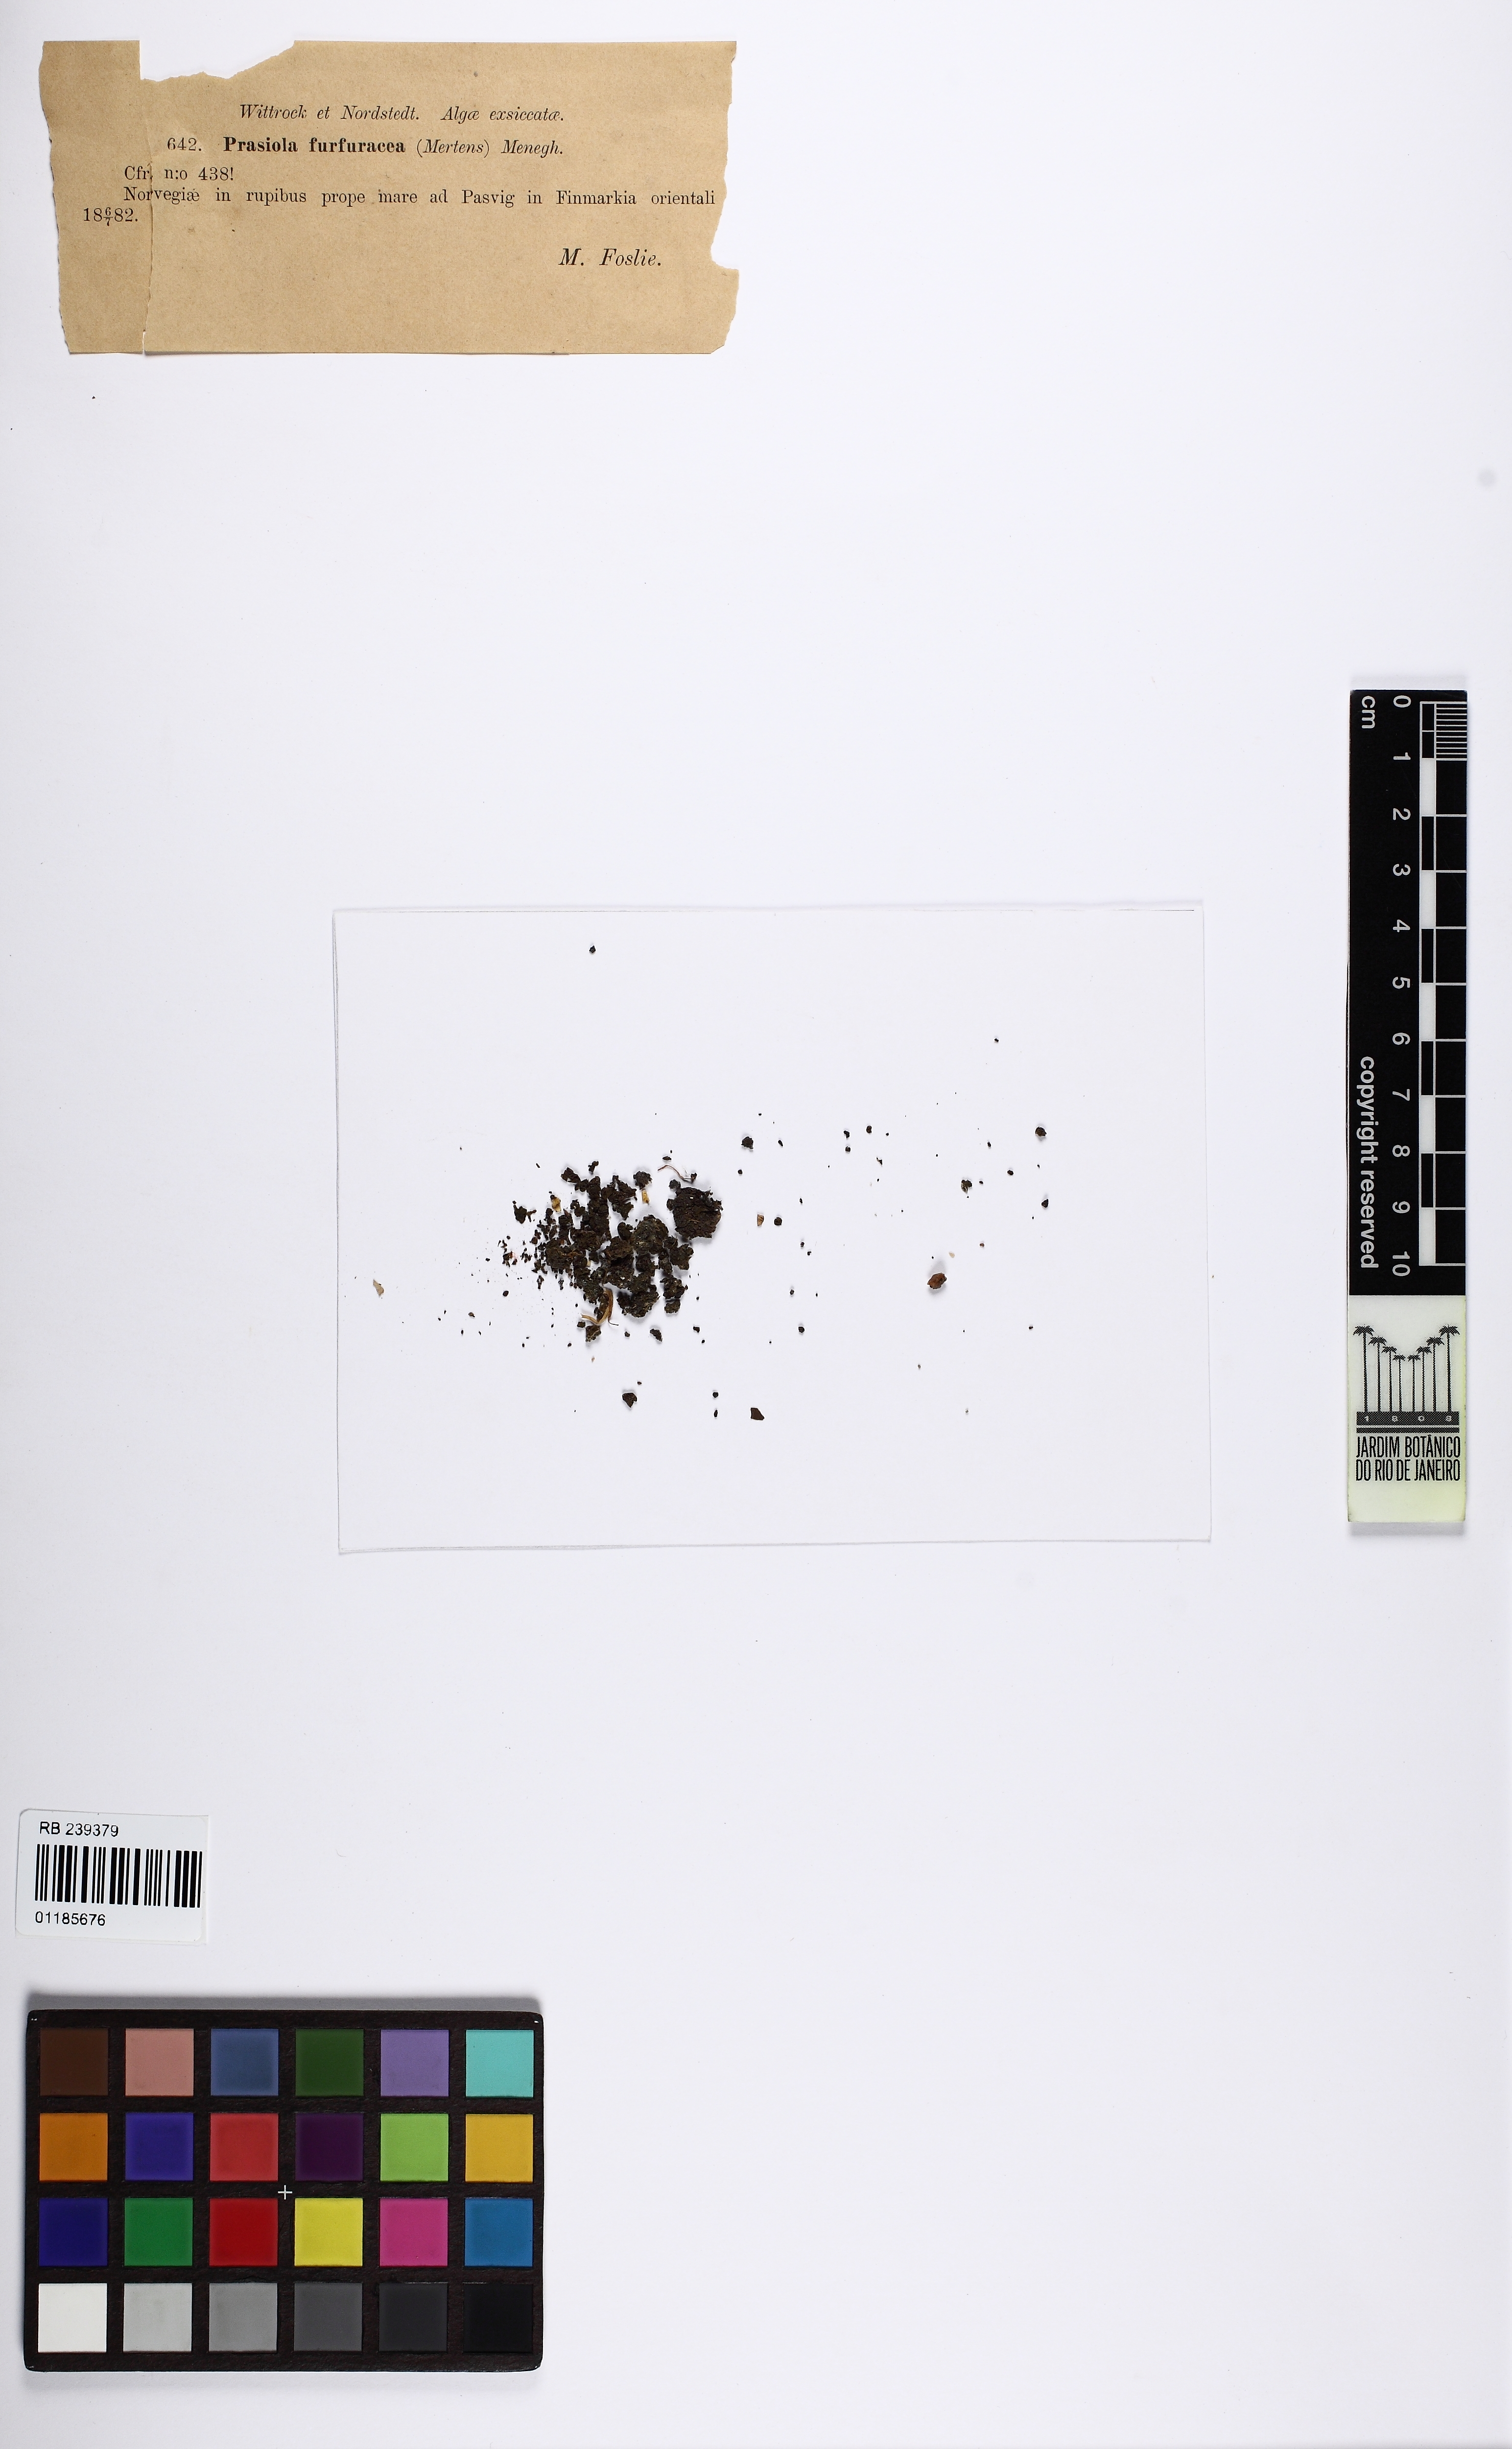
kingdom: Plantae
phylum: Chlorophyta
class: Trebouxiophyceae
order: Prasiolales
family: Prasiolaceae
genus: Prasiola
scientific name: Prasiola furfuracea
